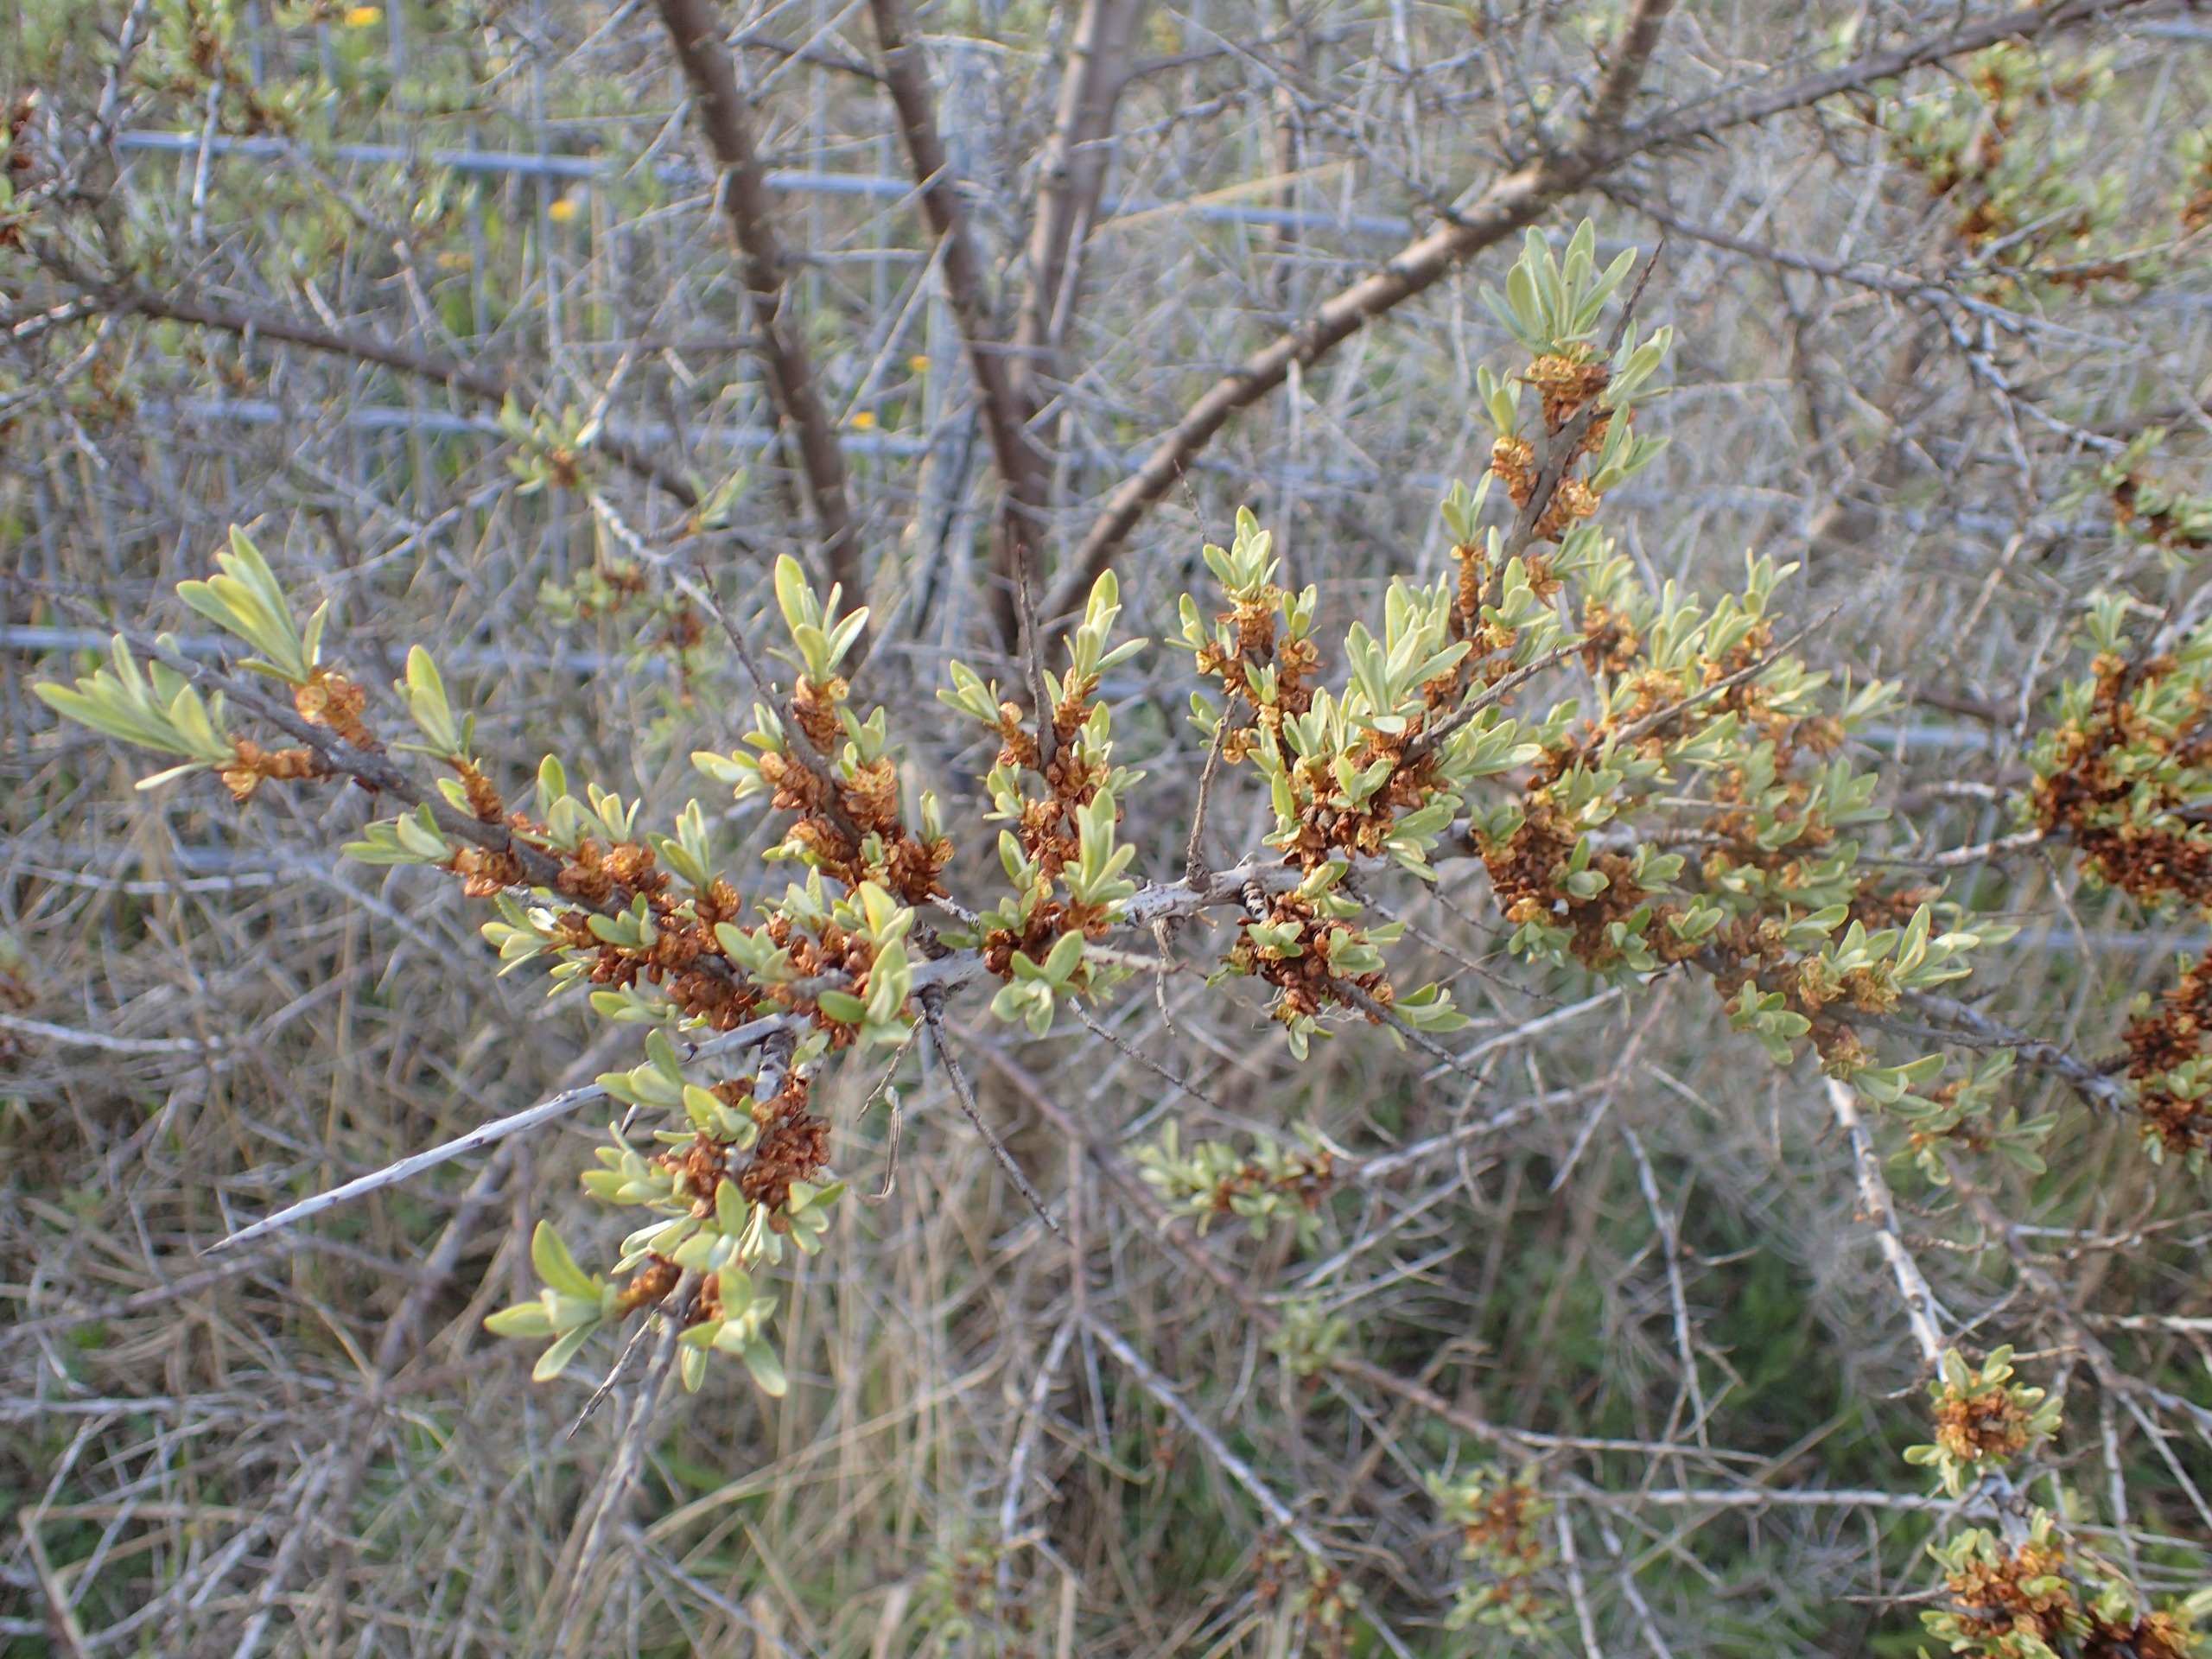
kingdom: Plantae
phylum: Tracheophyta
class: Magnoliopsida
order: Rosales
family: Elaeagnaceae
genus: Hippophae
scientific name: Hippophae rhamnoides
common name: Havtorn
